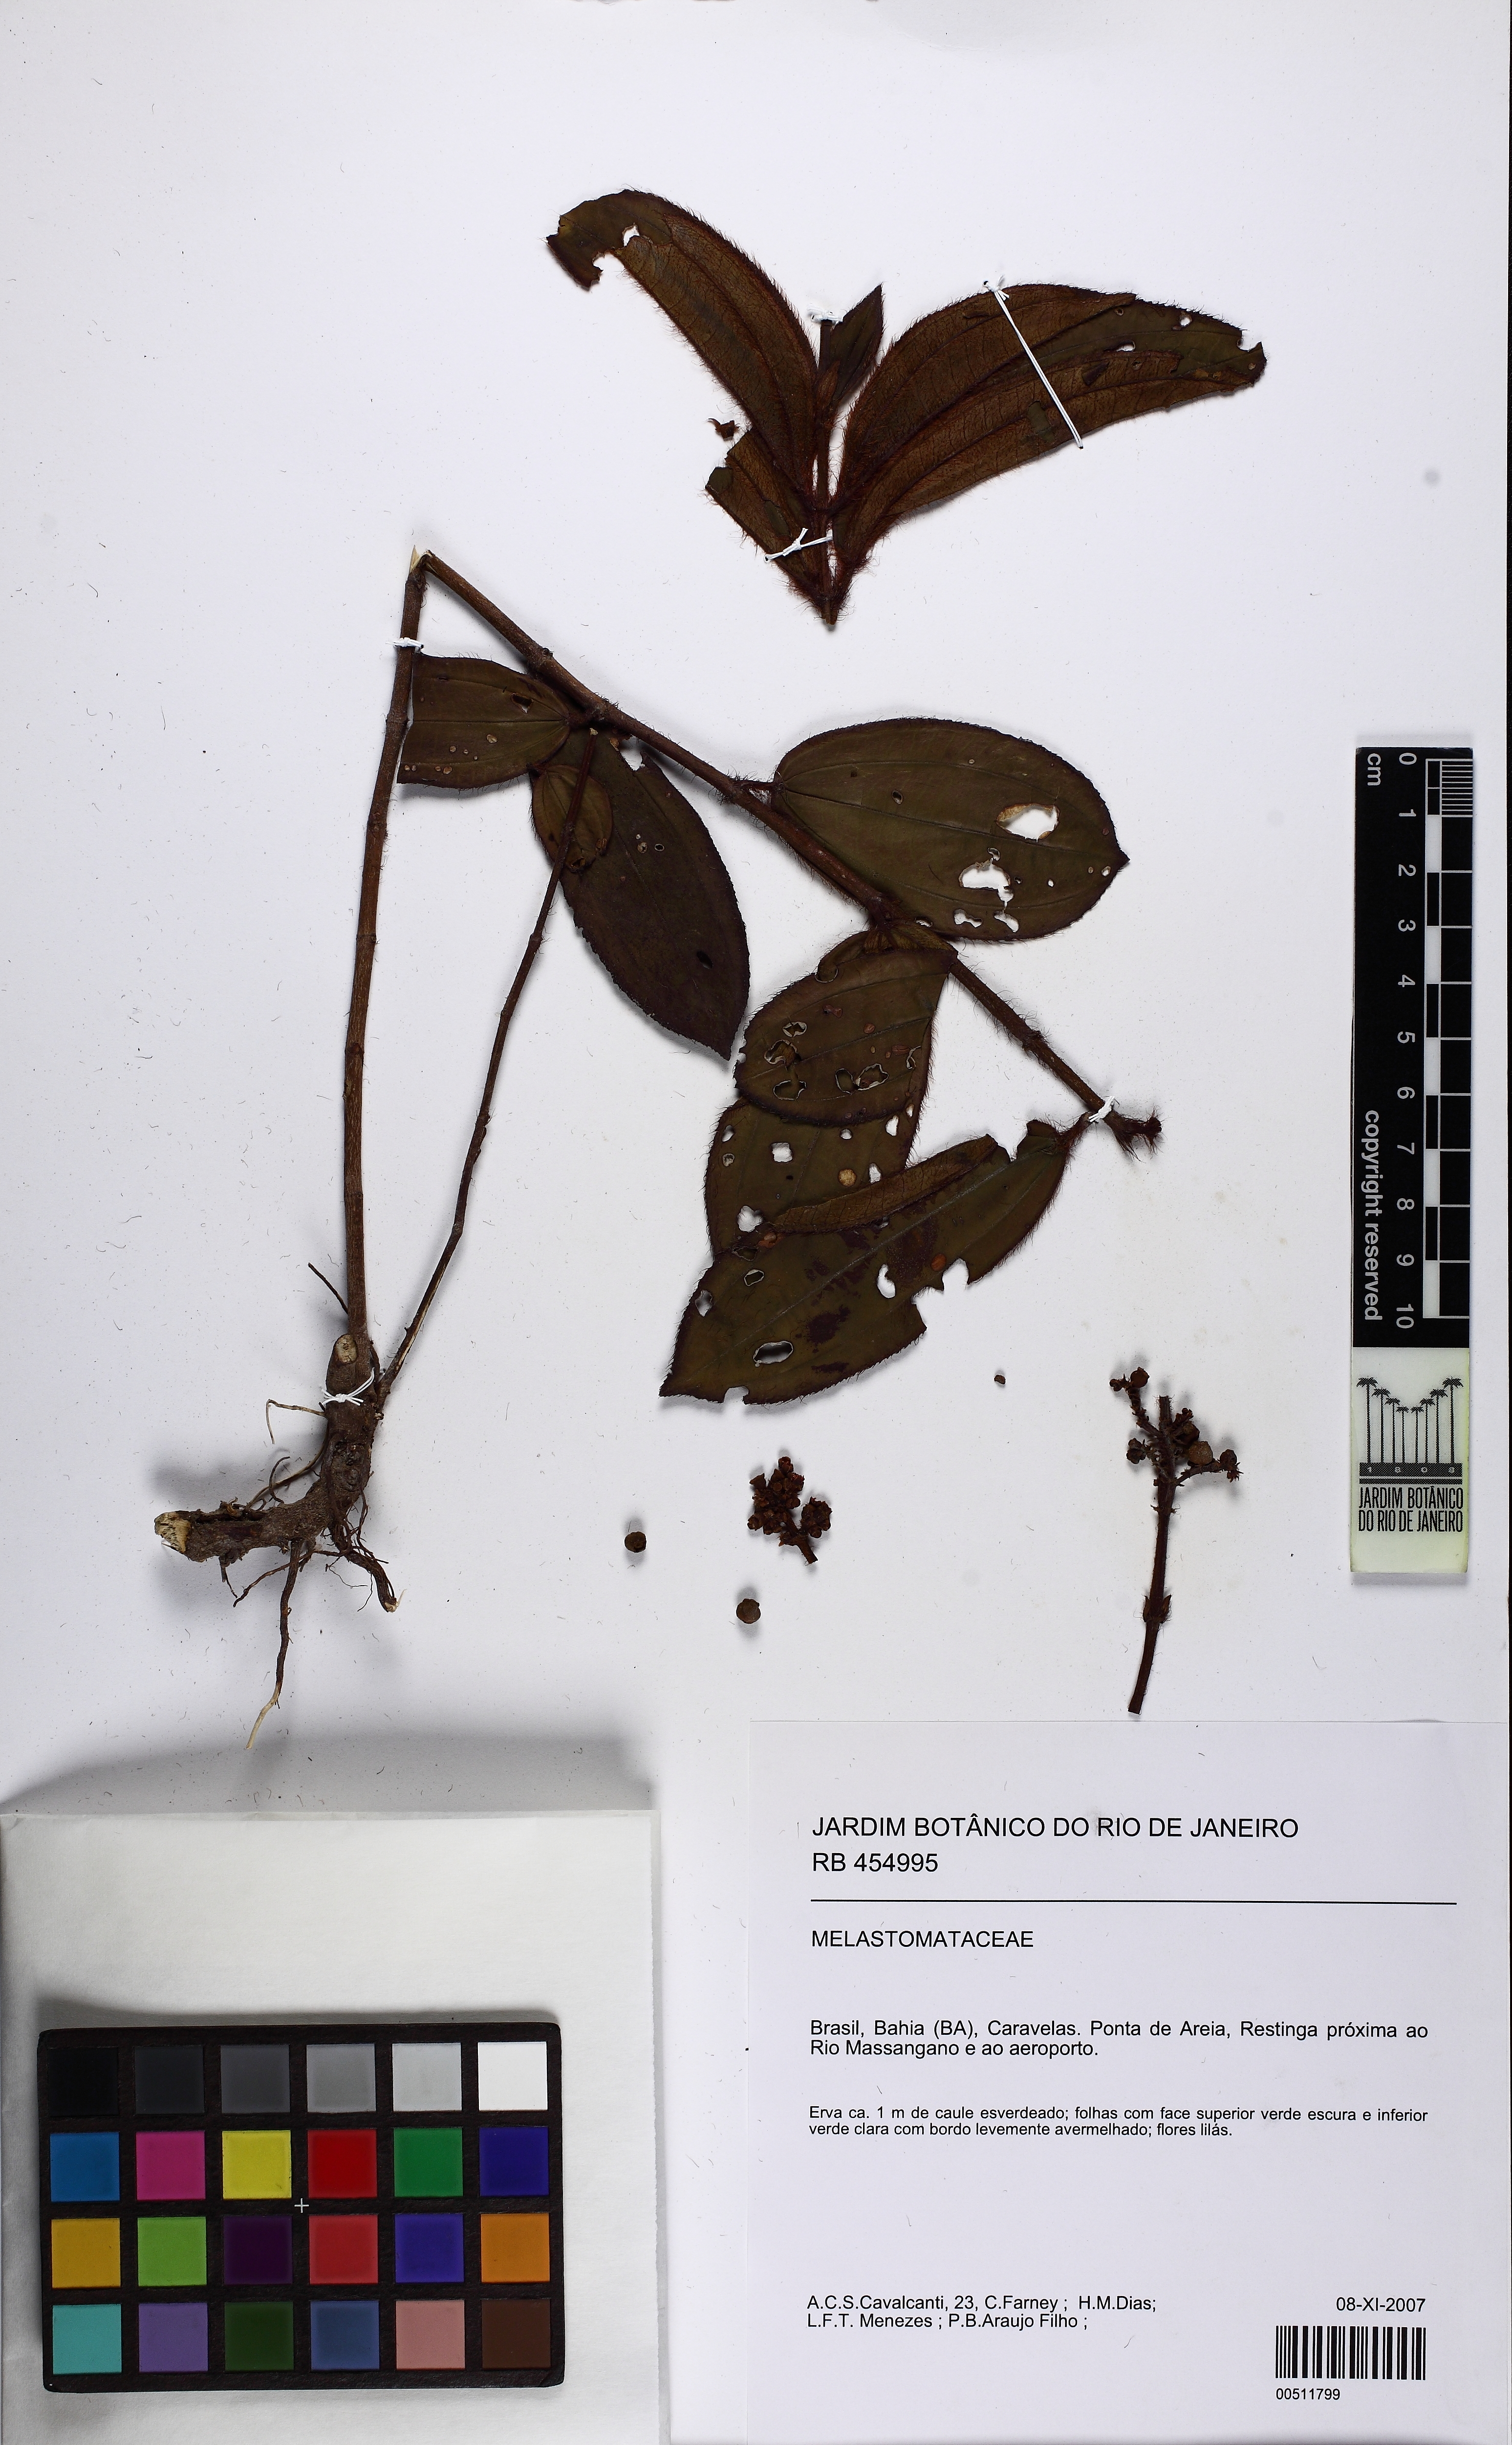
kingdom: Plantae
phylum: Tracheophyta
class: Magnoliopsida
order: Myrtales
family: Melastomataceae
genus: Miconia
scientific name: Miconia ciliata
